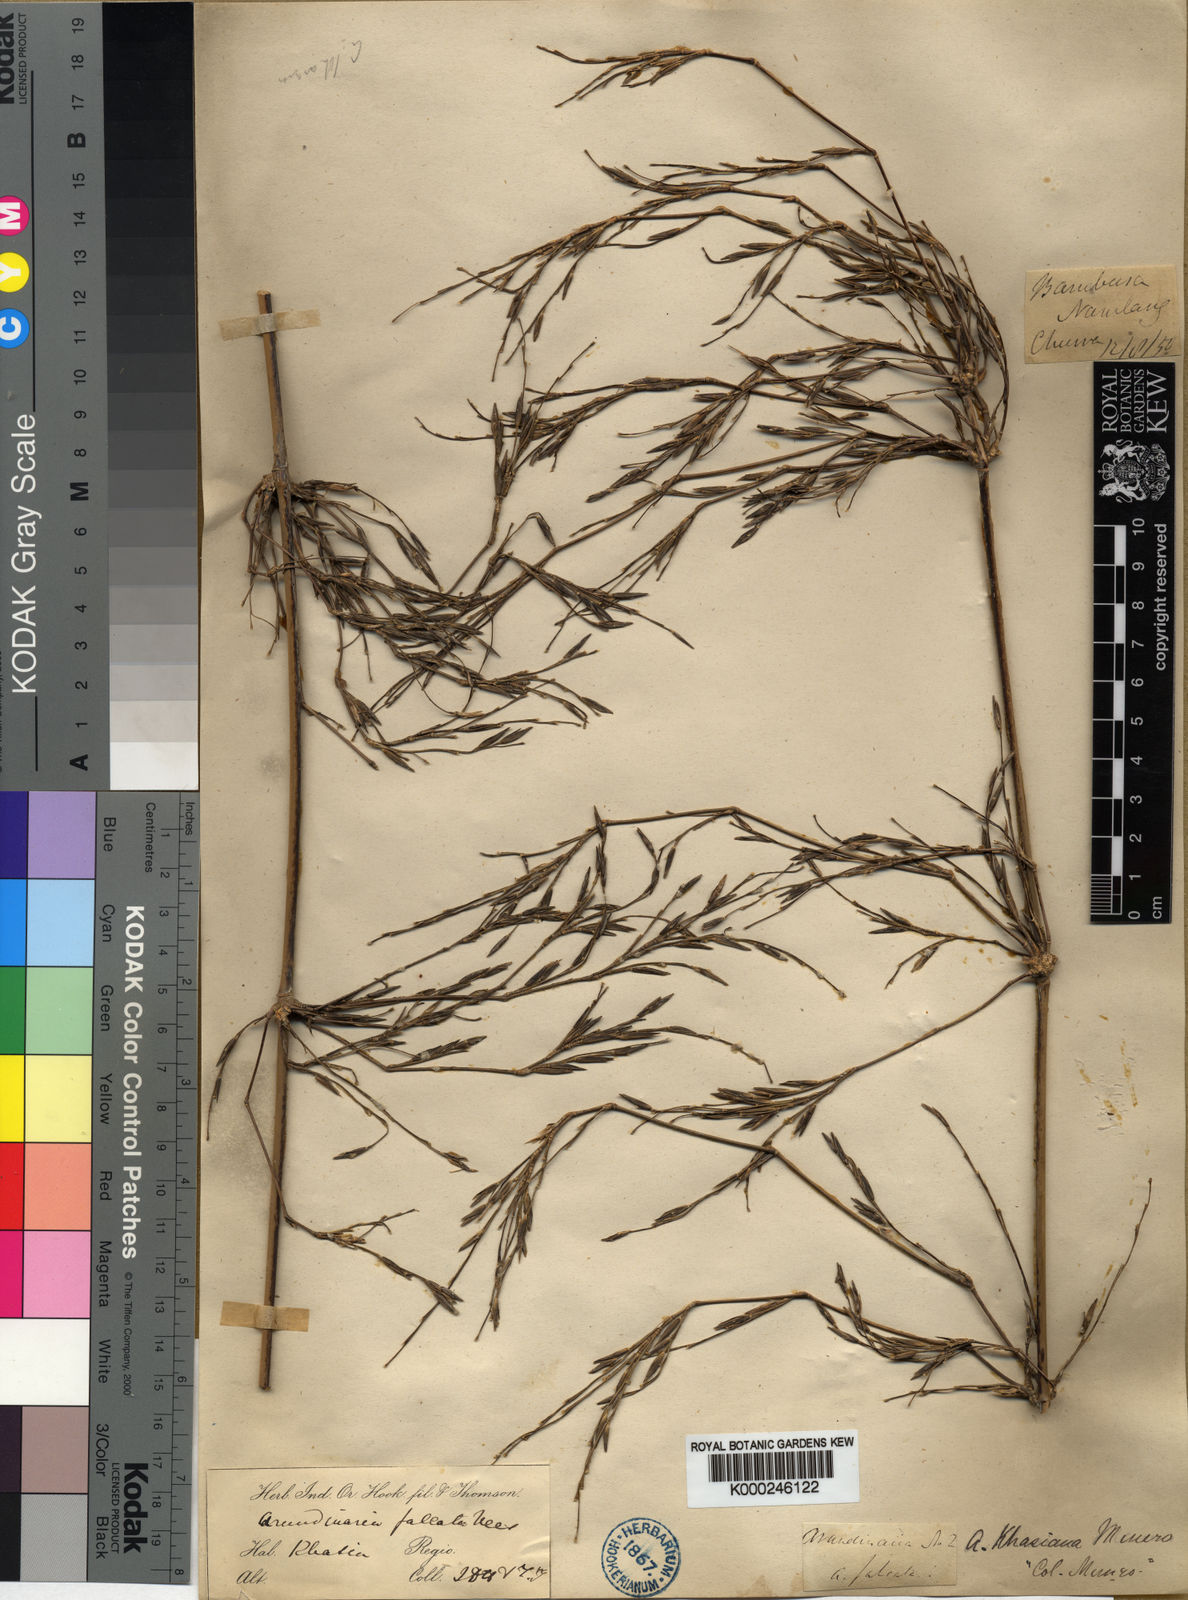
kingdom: Plantae
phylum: Tracheophyta
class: Liliopsida
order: Poales
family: Poaceae
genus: Drepanostachyum
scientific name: Drepanostachyum khasianum
